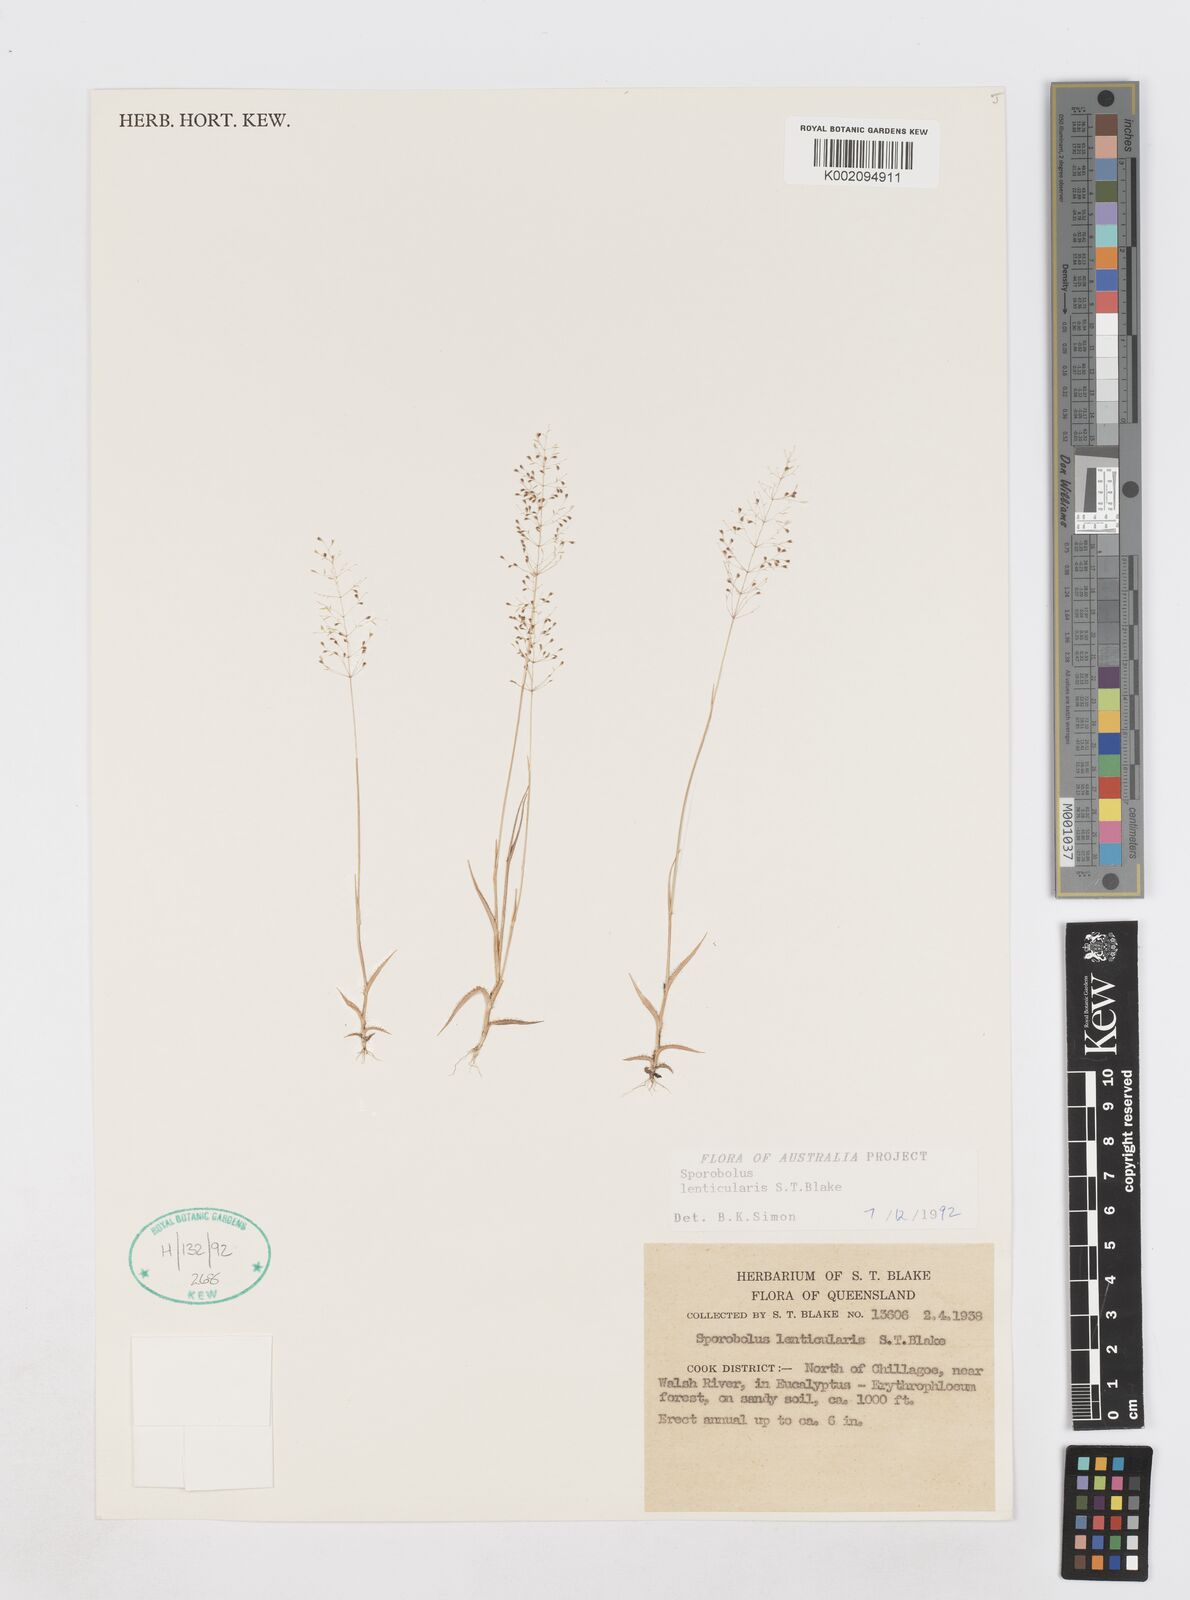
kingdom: Plantae
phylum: Tracheophyta
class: Liliopsida
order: Poales
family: Poaceae
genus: Sporobolus
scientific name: Sporobolus lenticularis
